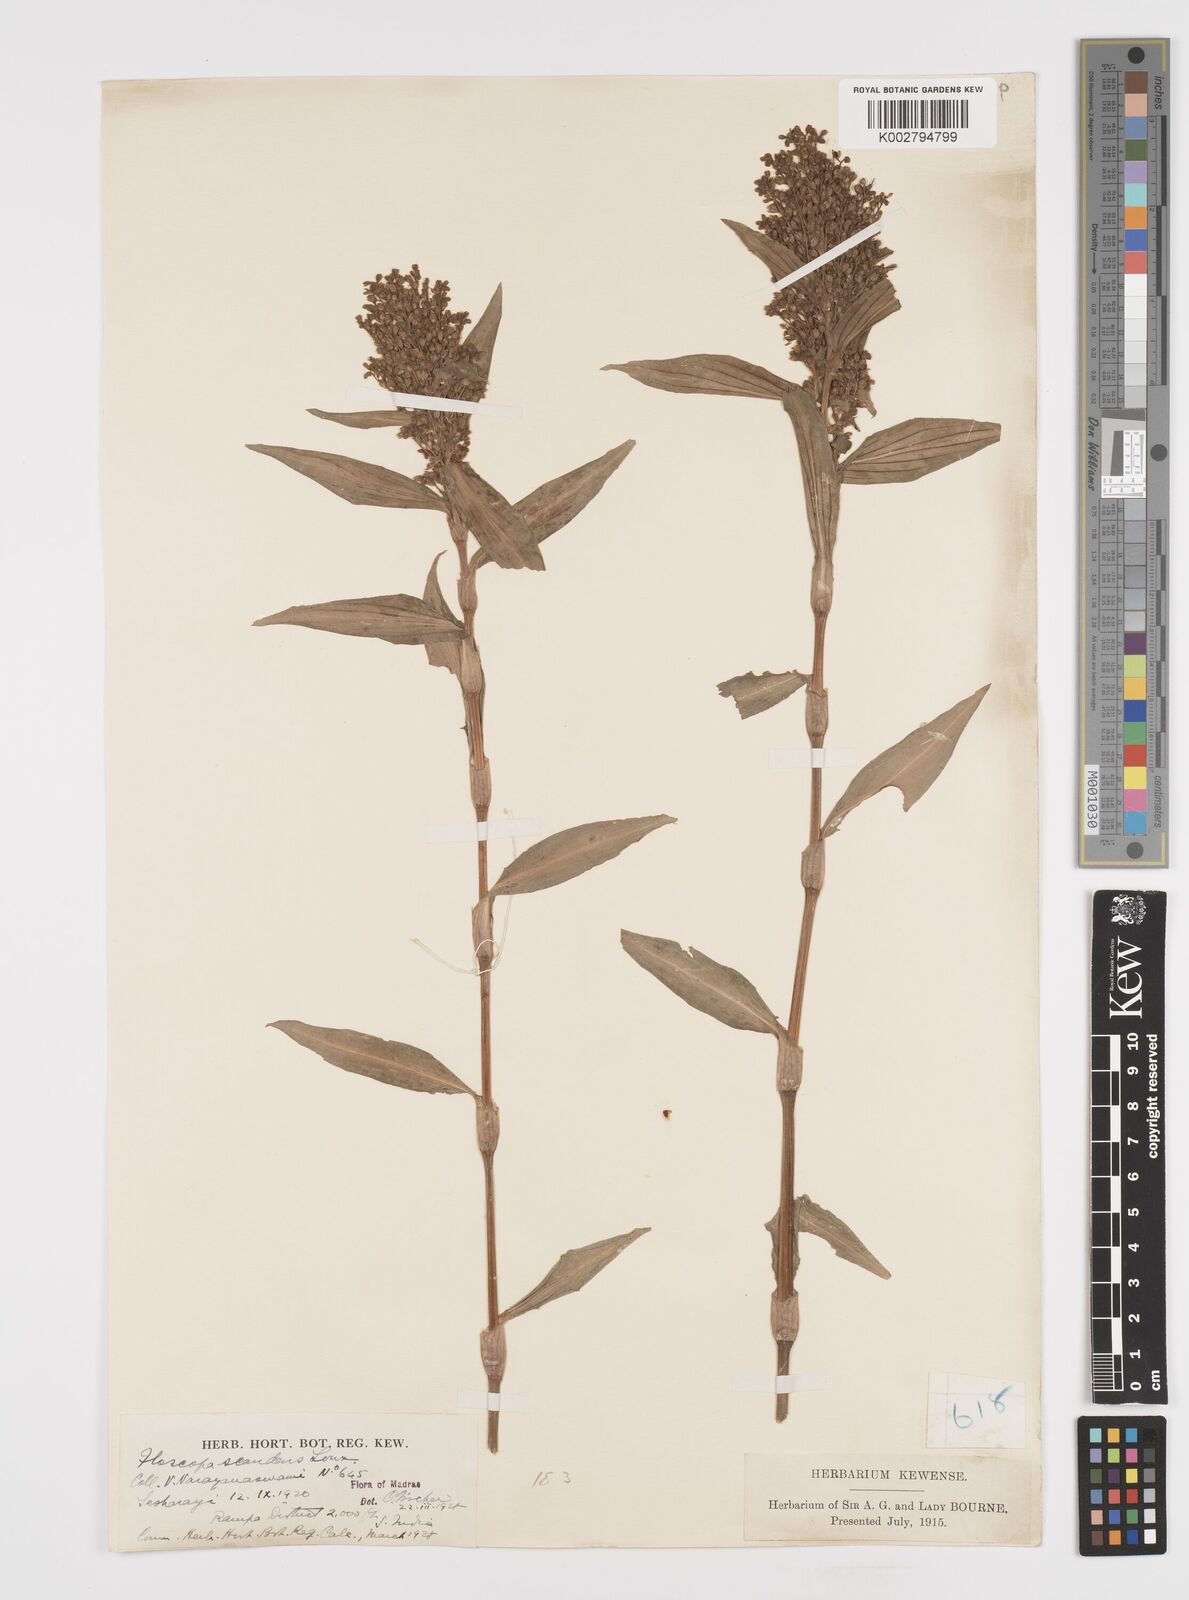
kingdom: Plantae
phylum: Tracheophyta
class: Liliopsida
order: Commelinales
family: Commelinaceae
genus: Floscopa
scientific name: Floscopa scandens
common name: Climbing flower cup
